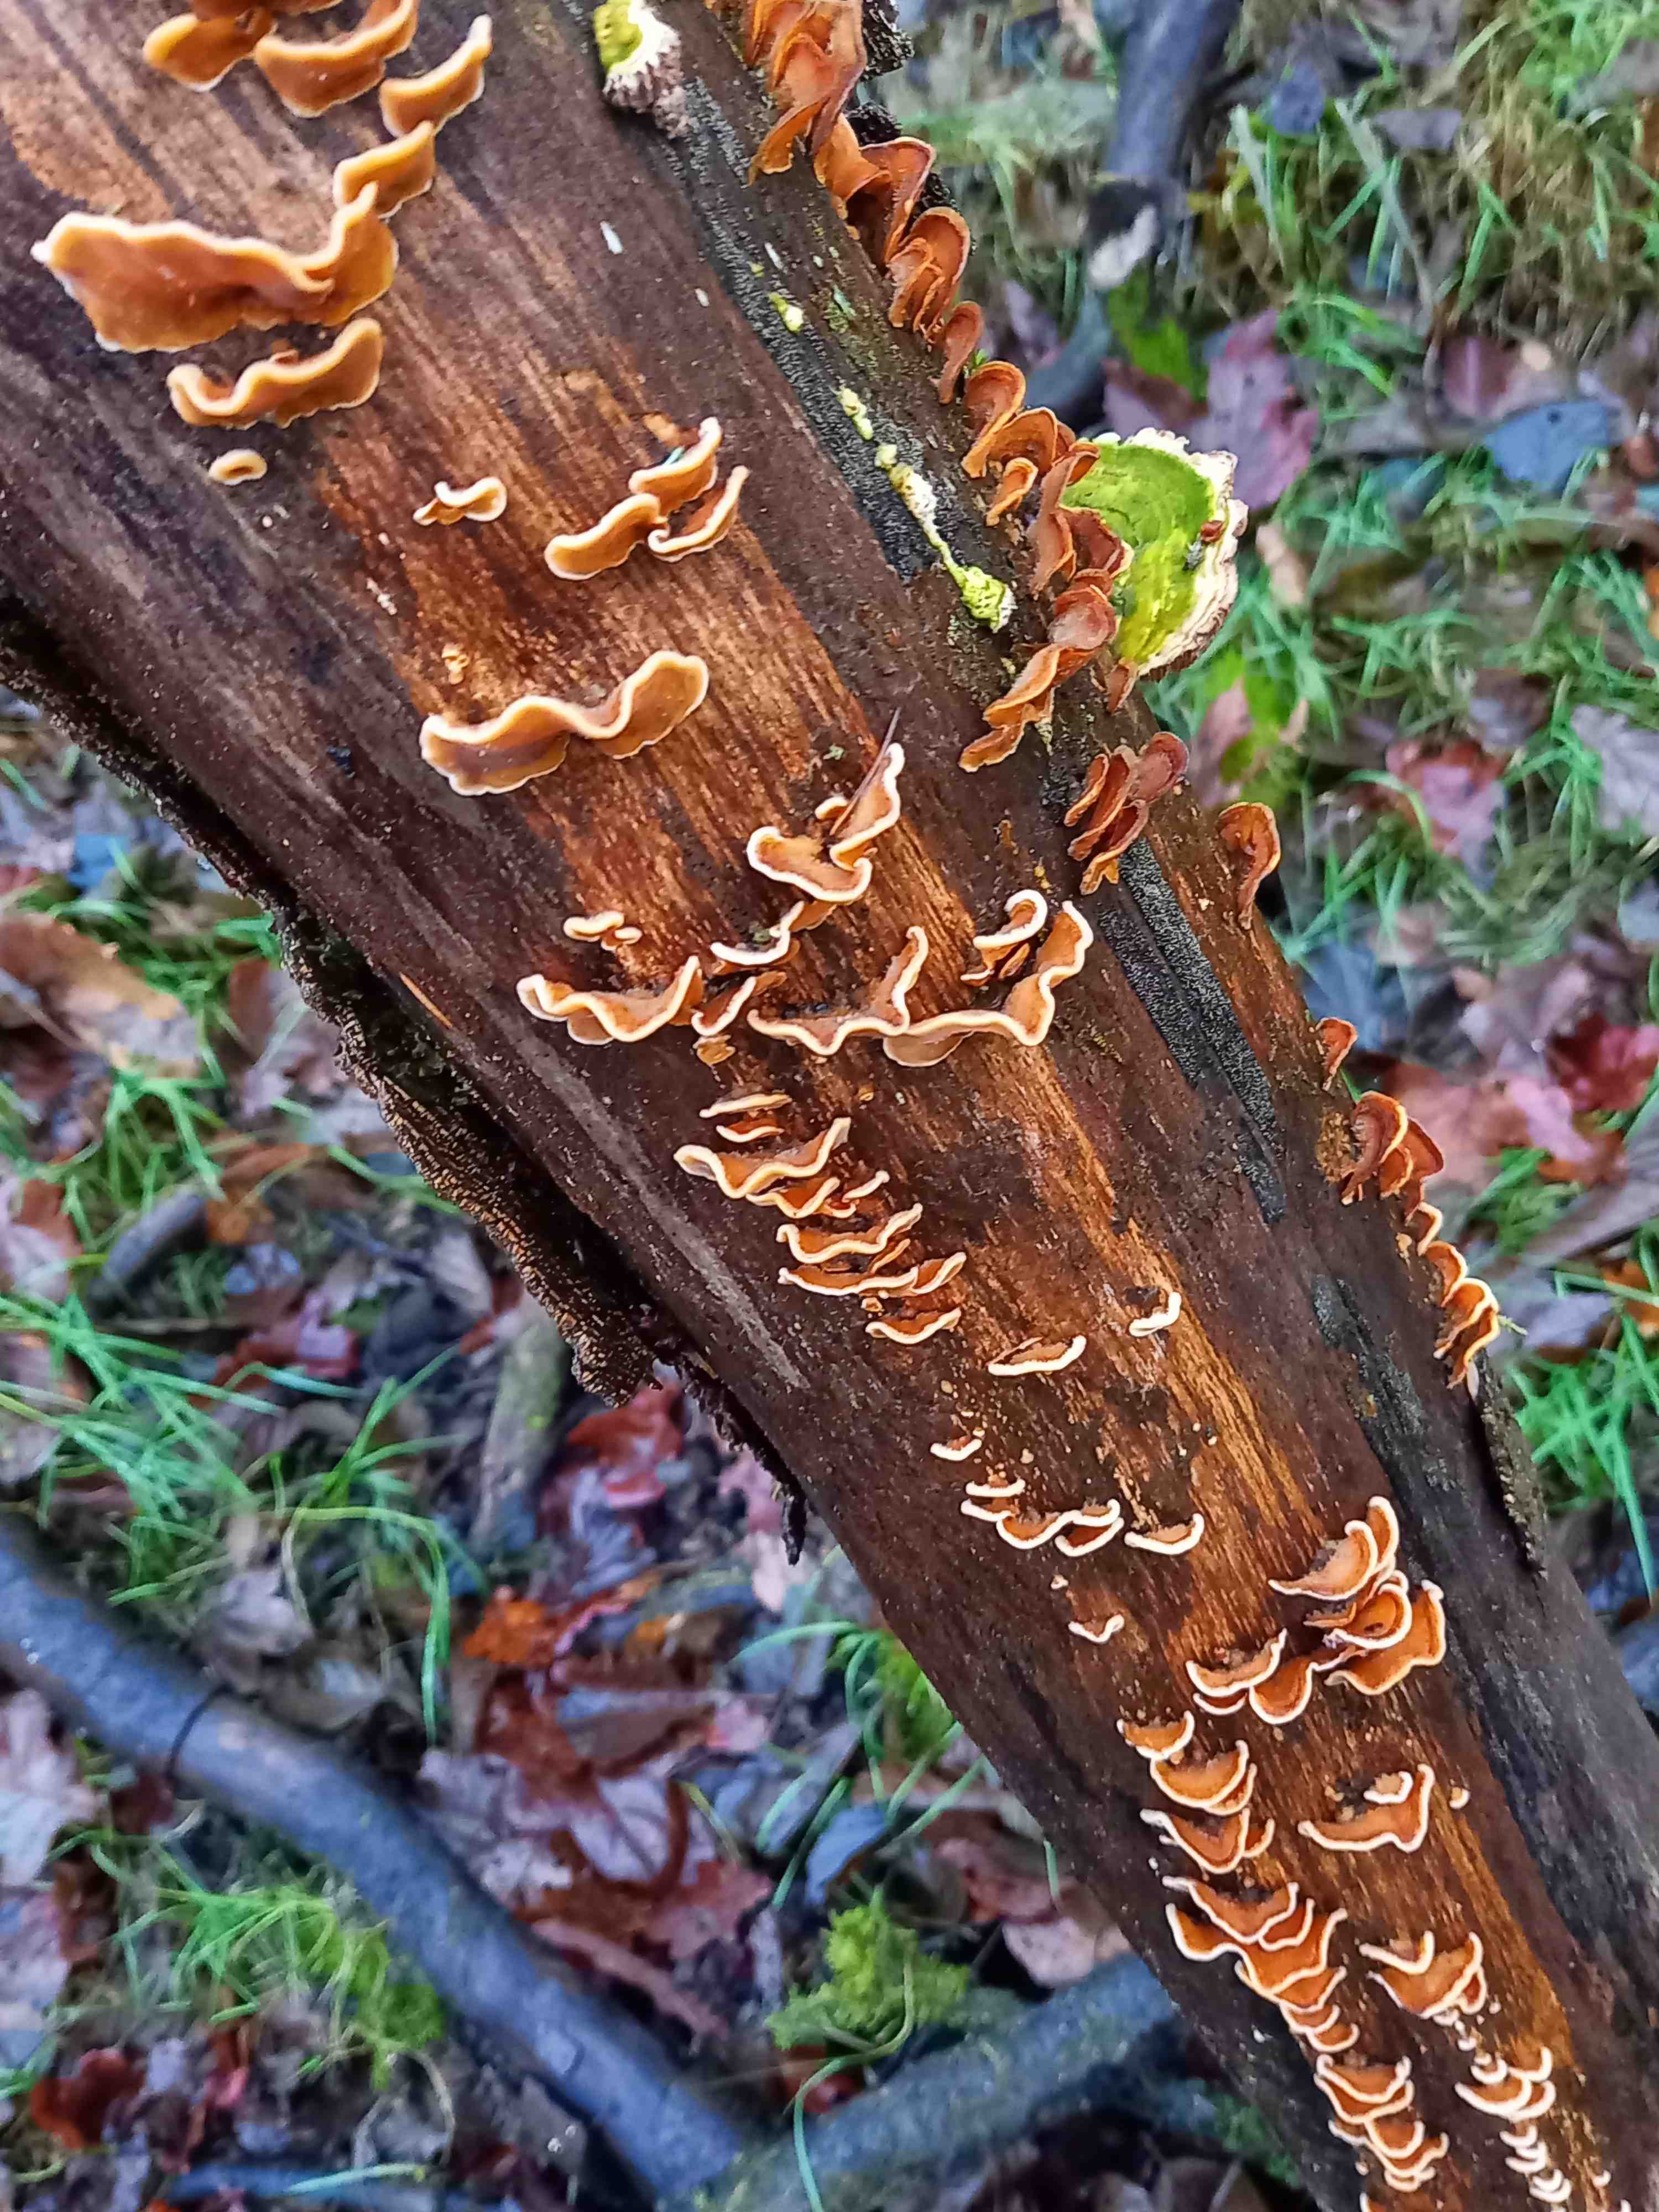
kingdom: Fungi
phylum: Basidiomycota
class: Agaricomycetes
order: Russulales
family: Stereaceae
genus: Stereum
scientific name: Stereum subtomentosum
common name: smuk lædersvamp
